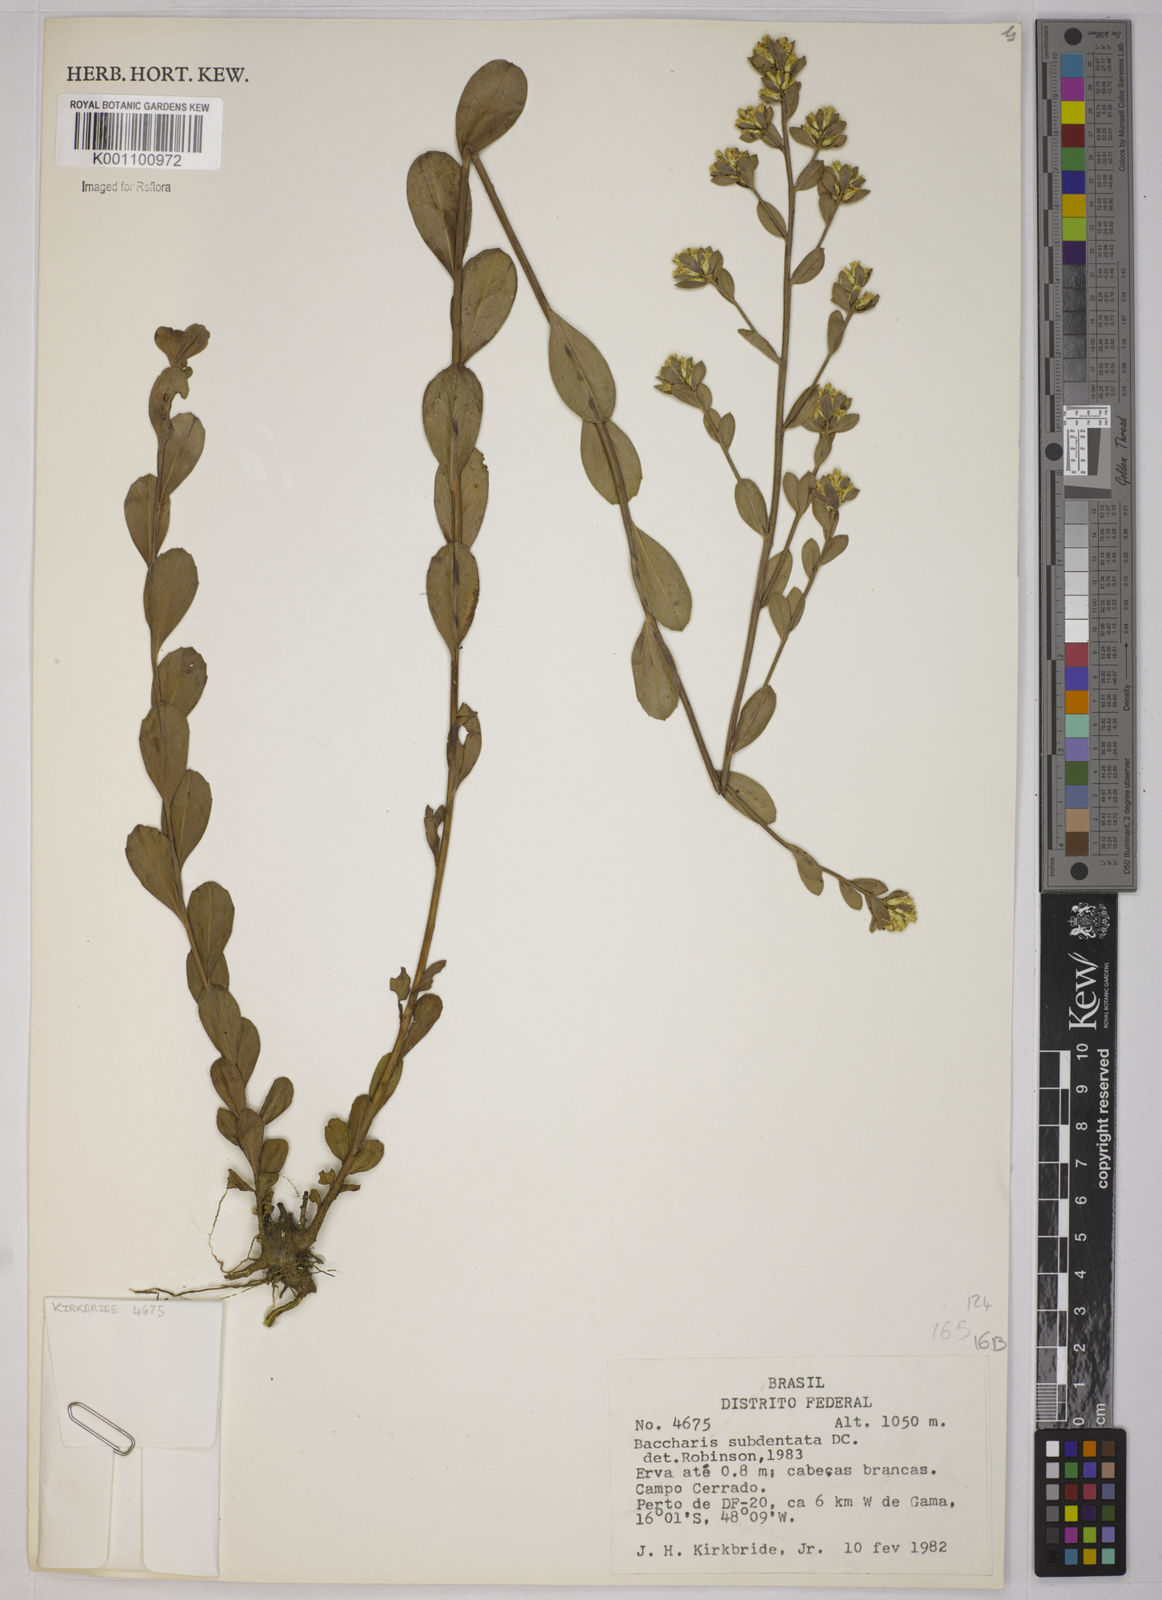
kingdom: Plantae
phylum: Tracheophyta
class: Magnoliopsida
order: Asterales
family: Asteraceae
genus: Baccharis
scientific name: Baccharis subdentata
